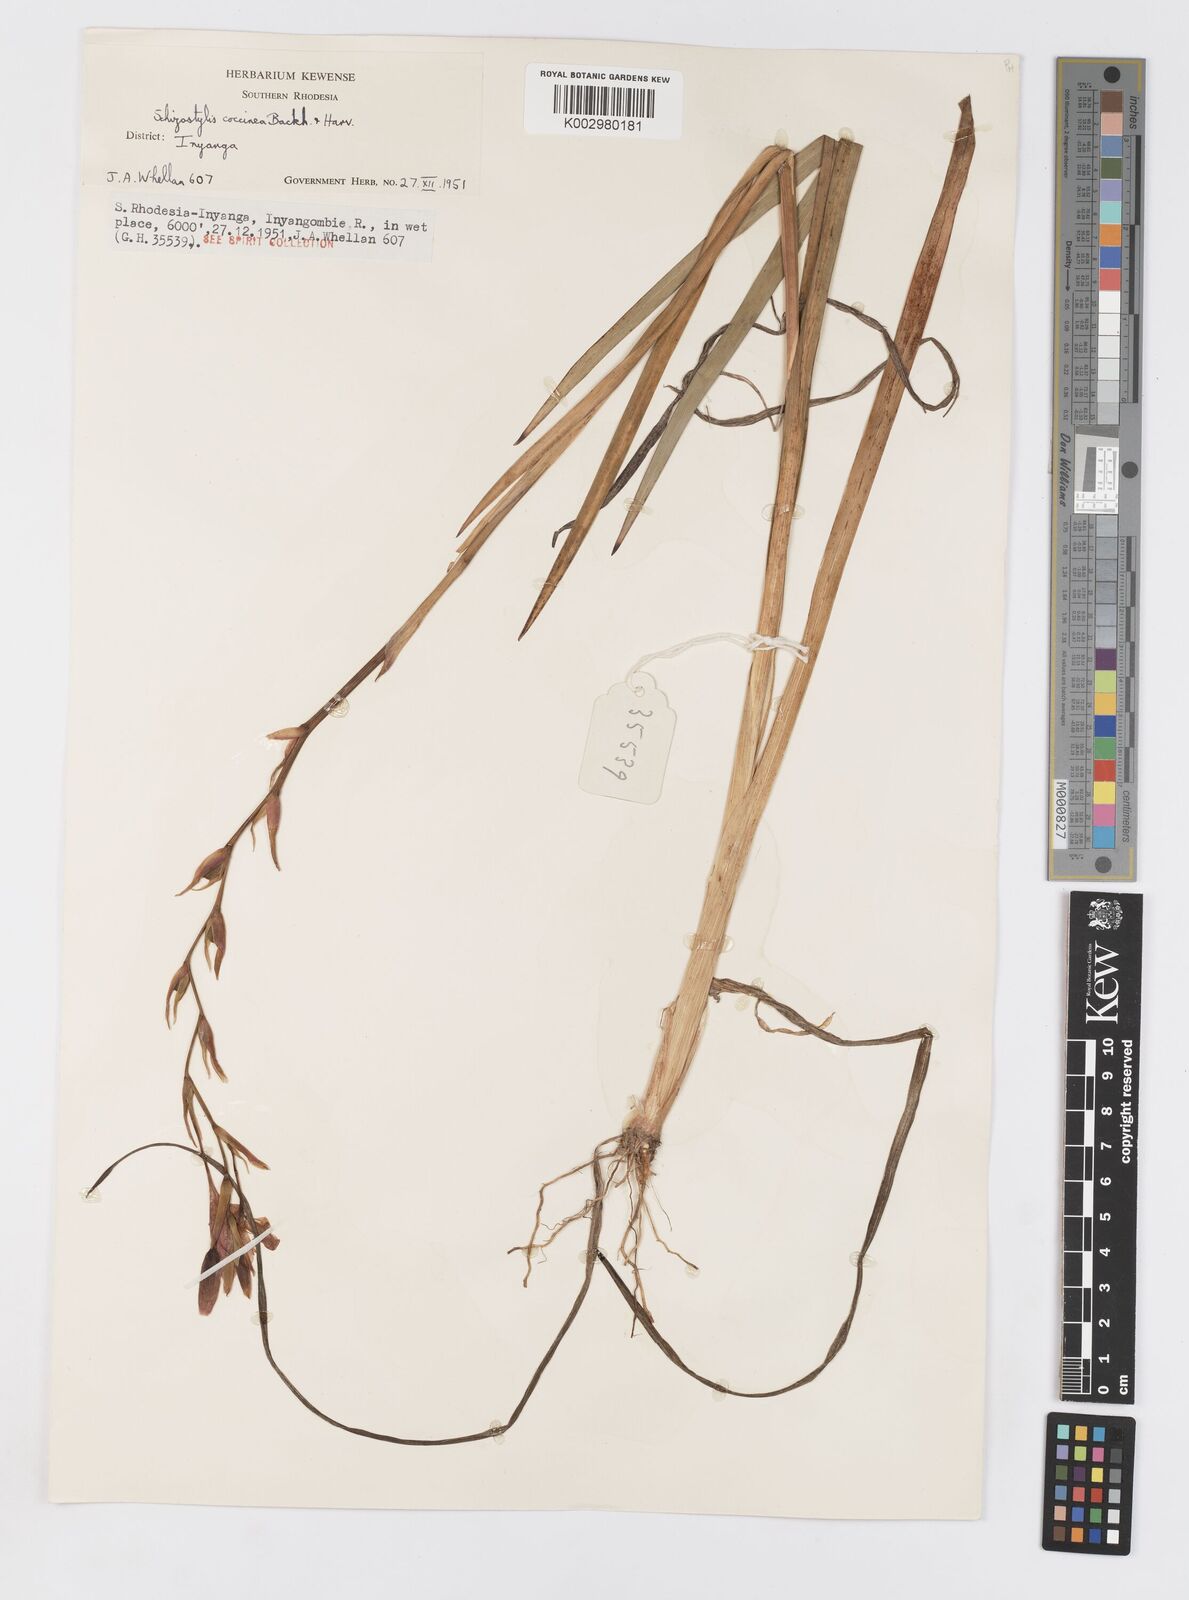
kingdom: Plantae
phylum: Tracheophyta
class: Liliopsida
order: Asparagales
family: Iridaceae
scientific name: Iridaceae
